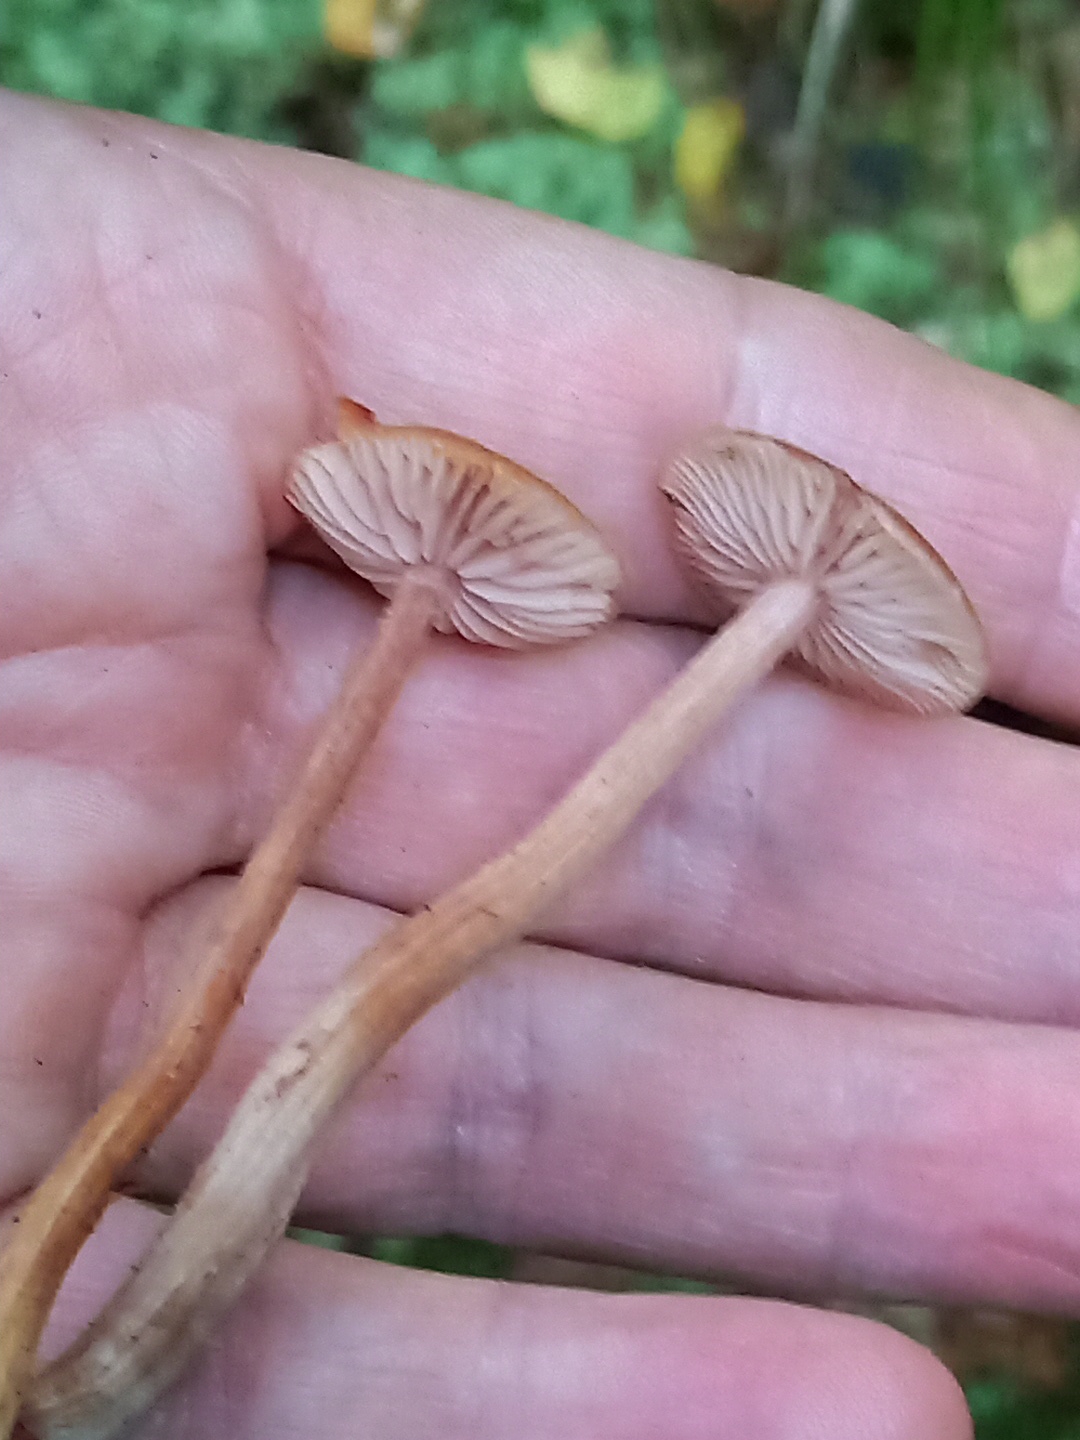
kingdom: Fungi
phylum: Basidiomycota
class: Agaricomycetes
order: Agaricales
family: Hydnangiaceae
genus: Laccaria
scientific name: Laccaria laccata
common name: rød ametysthat
